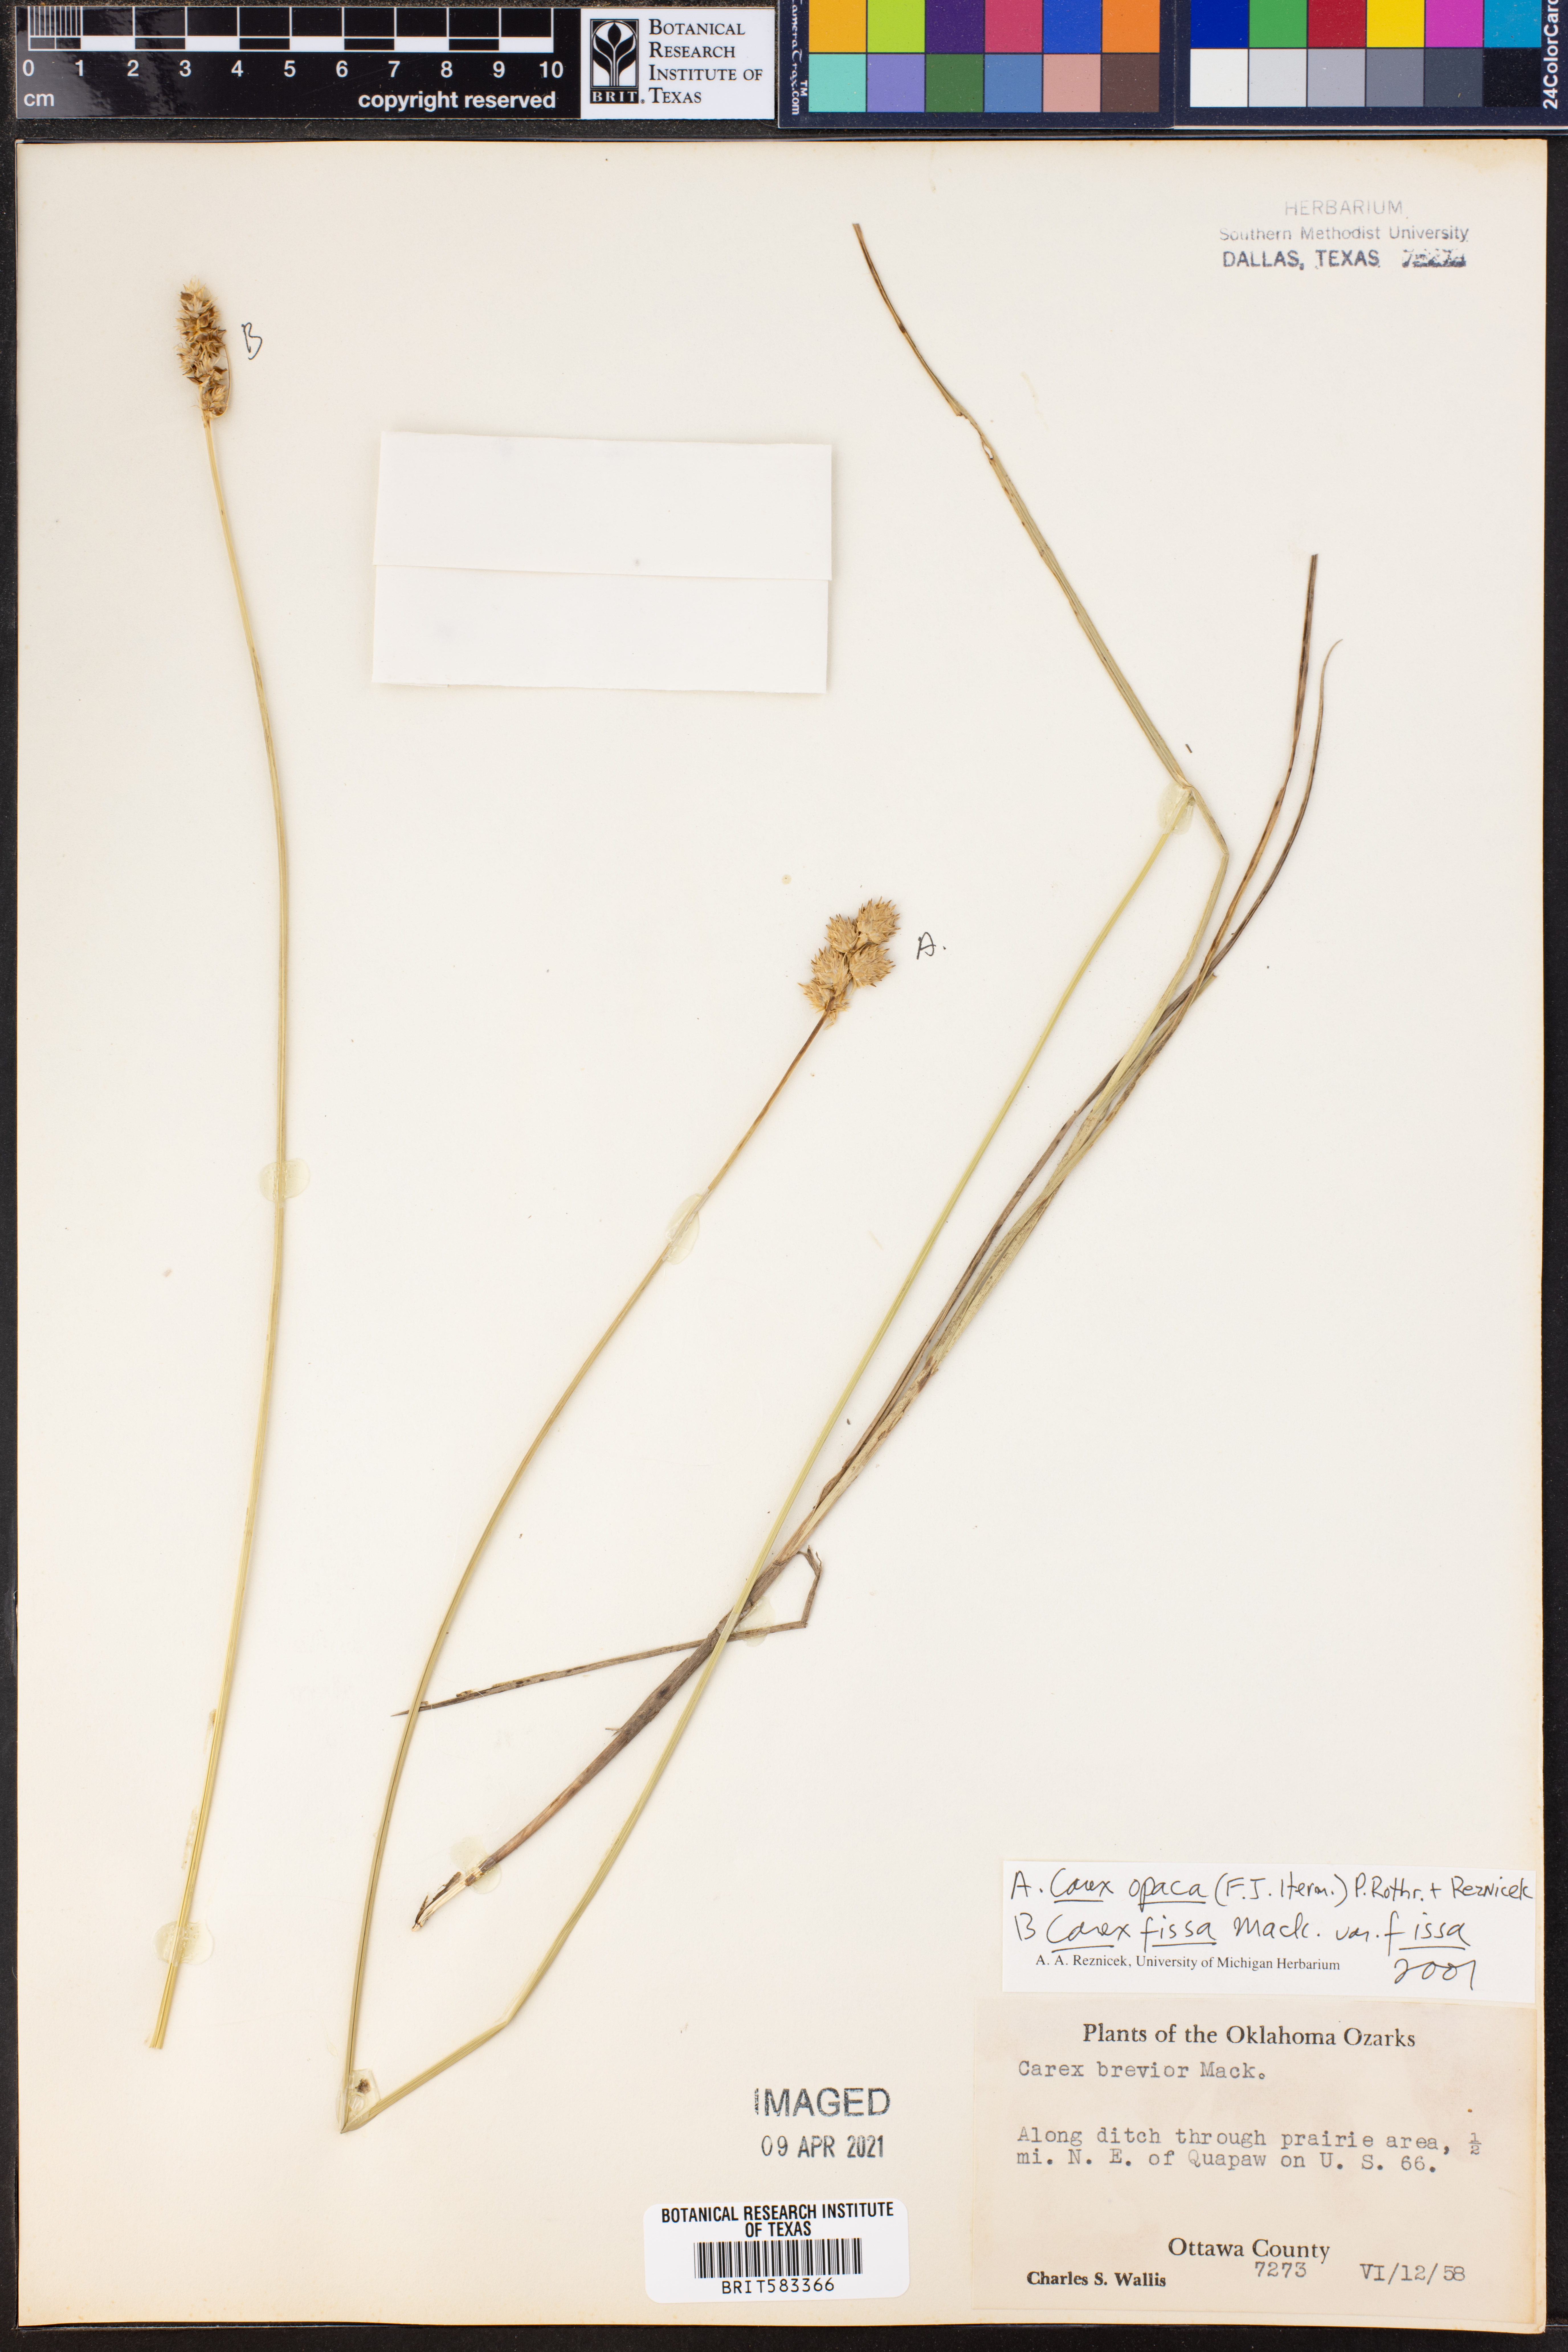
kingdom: Plantae
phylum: Tracheophyta
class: Liliopsida
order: Poales
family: Cyperaceae
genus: Carex
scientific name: Carex opaca
